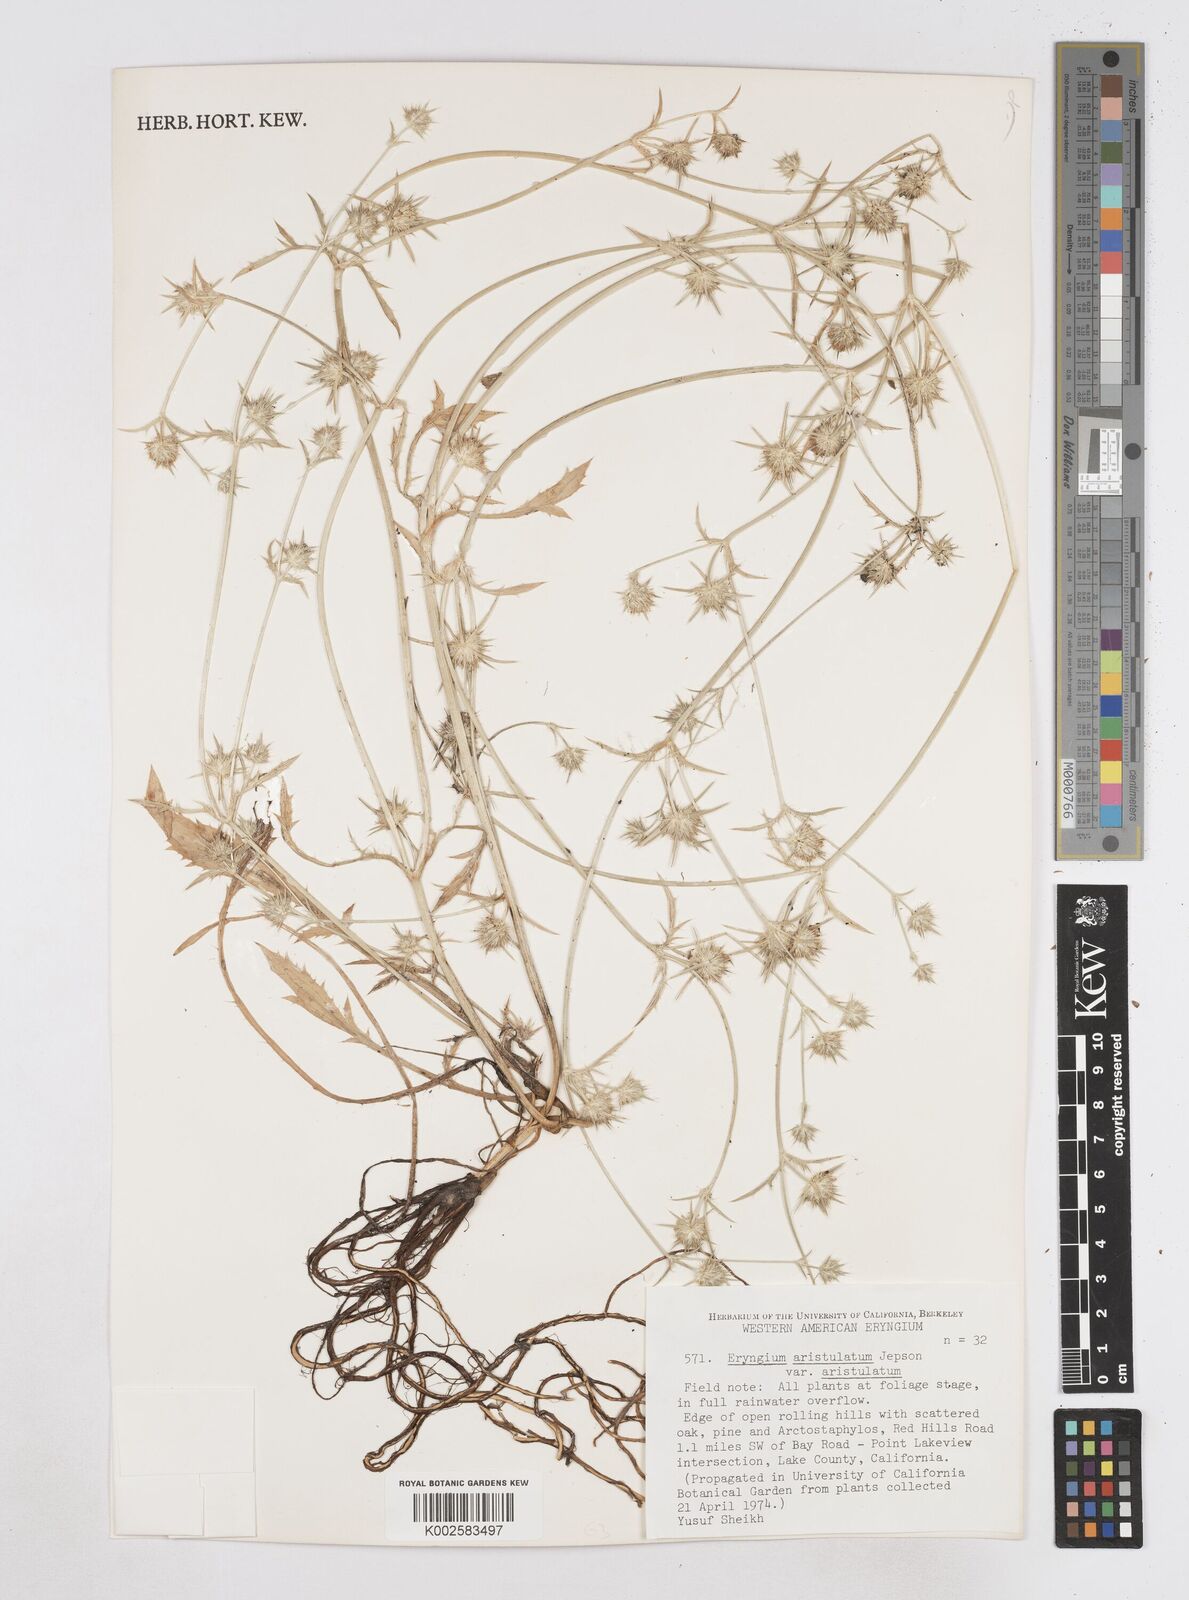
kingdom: Plantae
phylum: Tracheophyta
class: Magnoliopsida
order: Apiales
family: Apiaceae
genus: Eryngium
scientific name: Eryngium aristulatum
